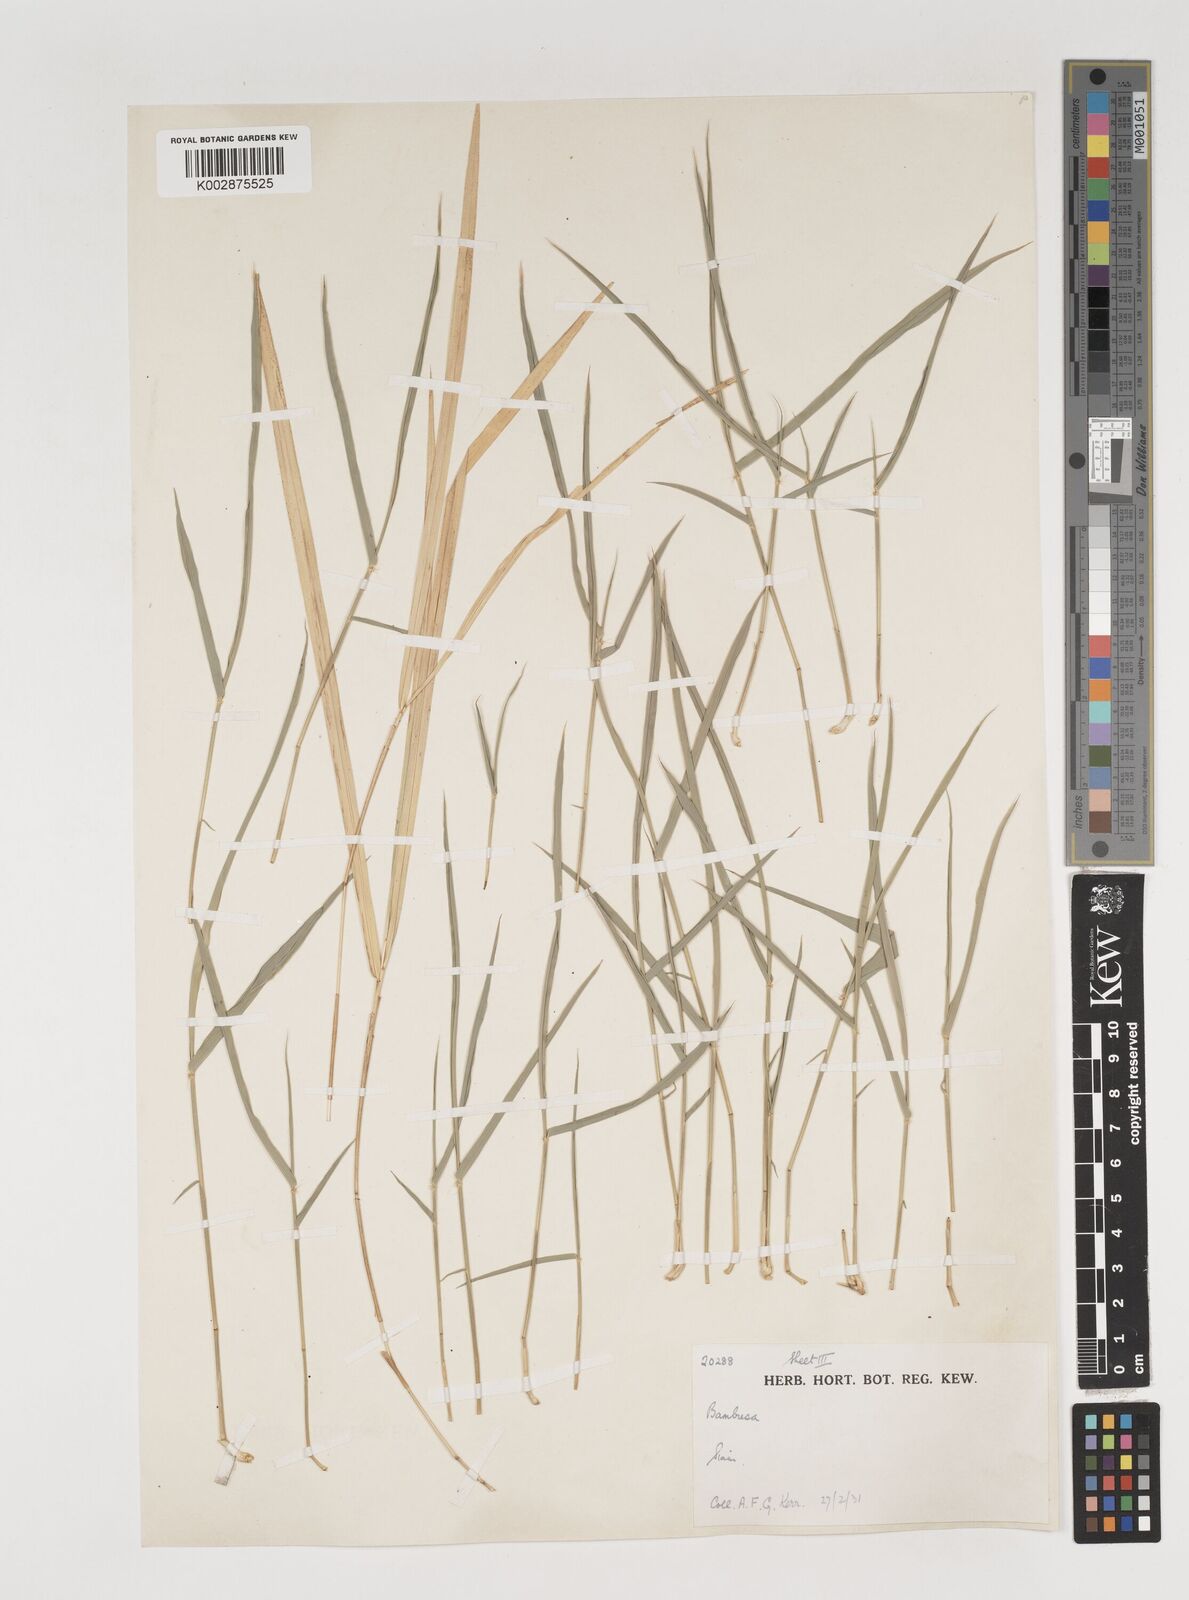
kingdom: Plantae
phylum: Tracheophyta
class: Liliopsida
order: Poales
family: Poaceae
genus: Vietnamosasa
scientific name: Vietnamosasa
